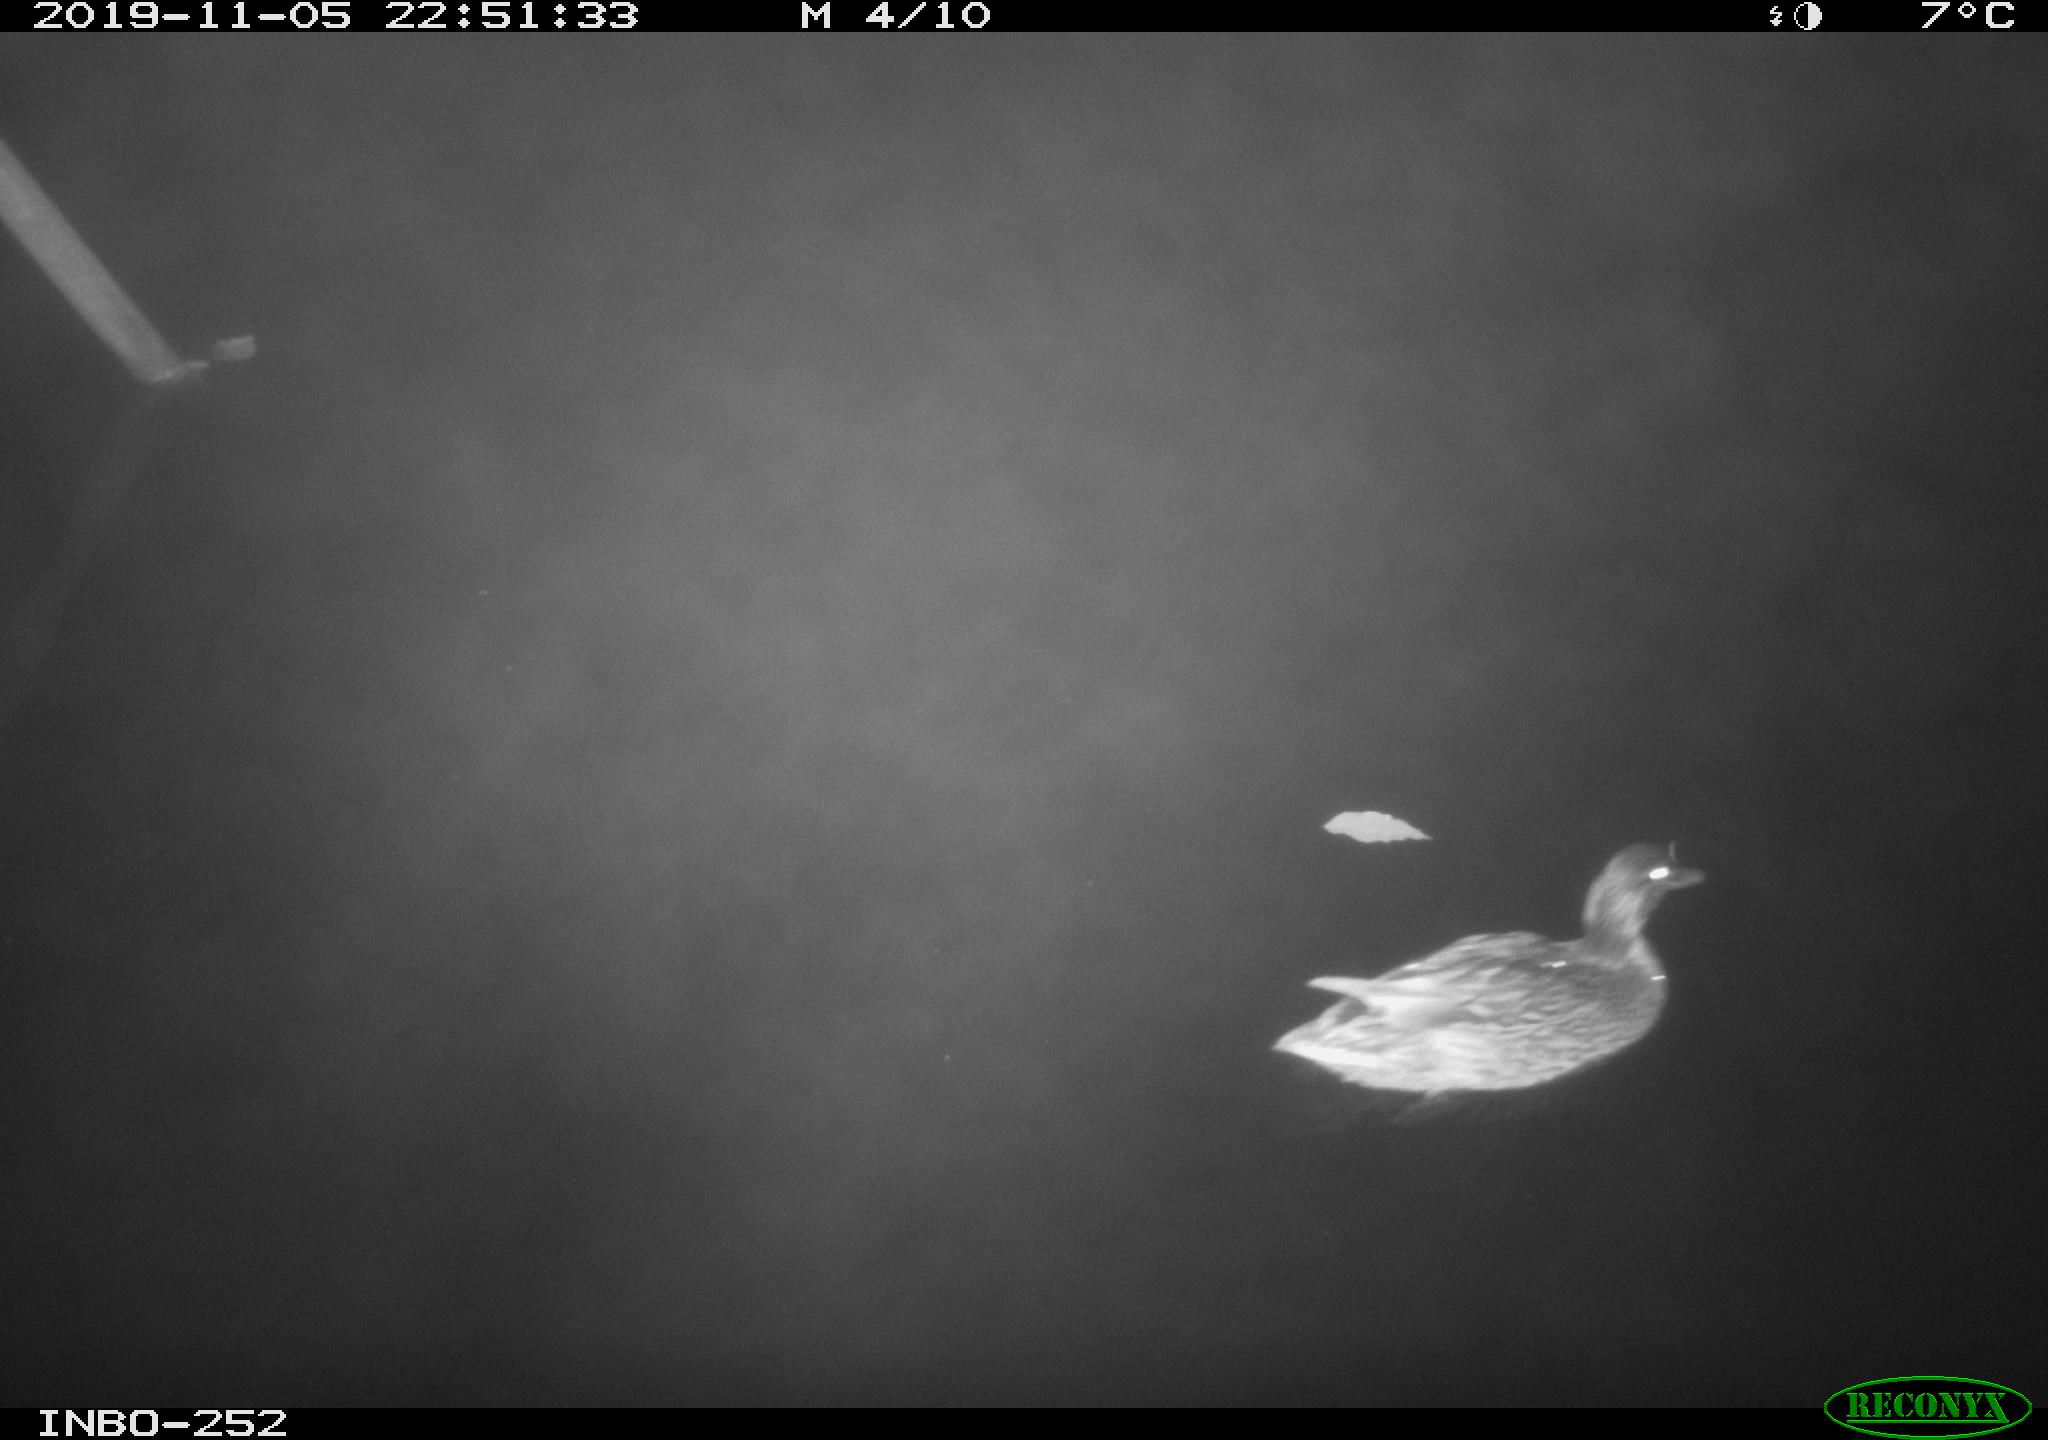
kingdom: Animalia
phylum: Chordata
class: Aves
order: Anseriformes
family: Anatidae
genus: Anas
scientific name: Anas platyrhynchos
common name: Mallard
